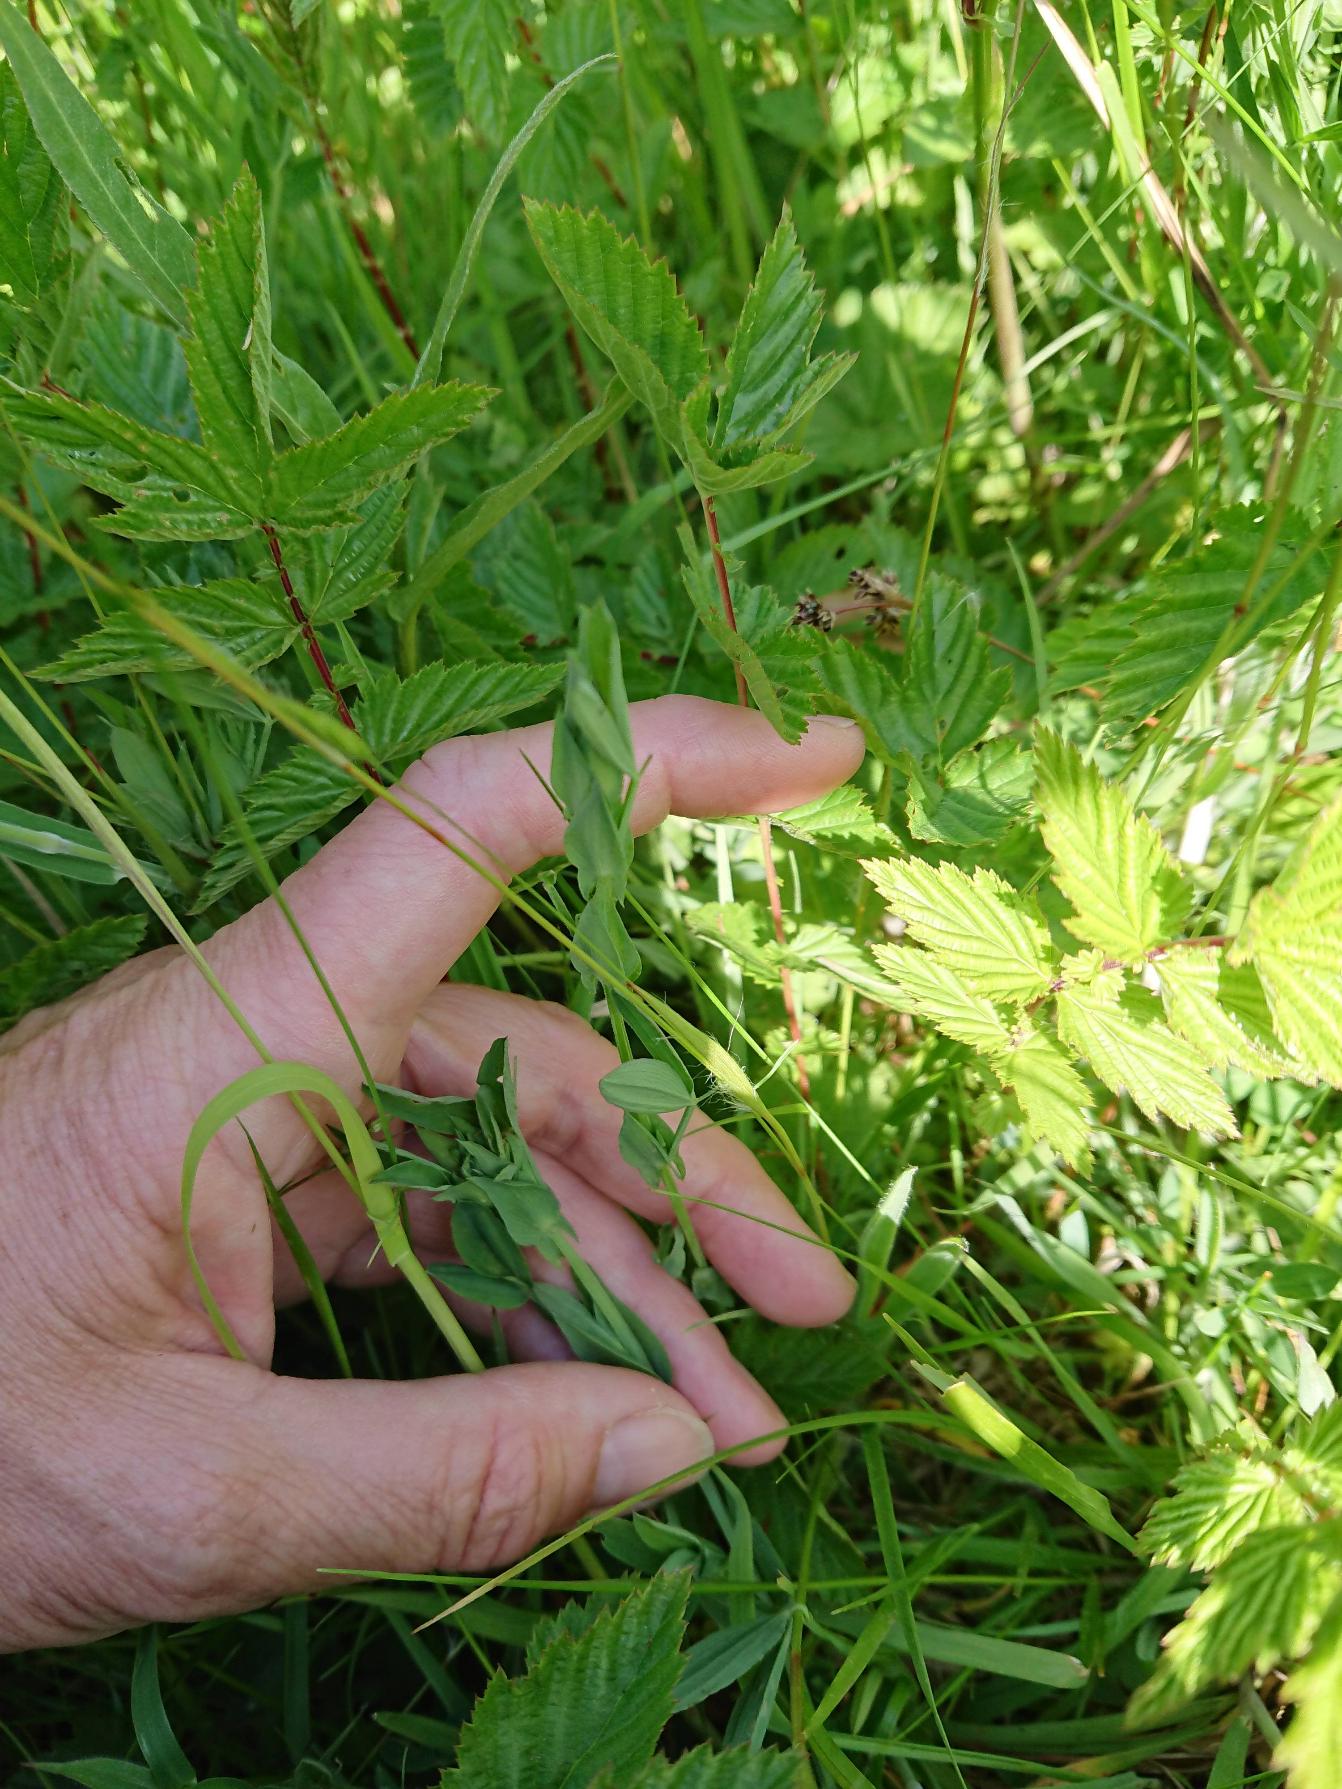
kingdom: Plantae
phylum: Tracheophyta
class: Magnoliopsida
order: Fabales
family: Fabaceae
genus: Lathyrus
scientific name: Lathyrus pratensis
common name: Gul fladbælg
